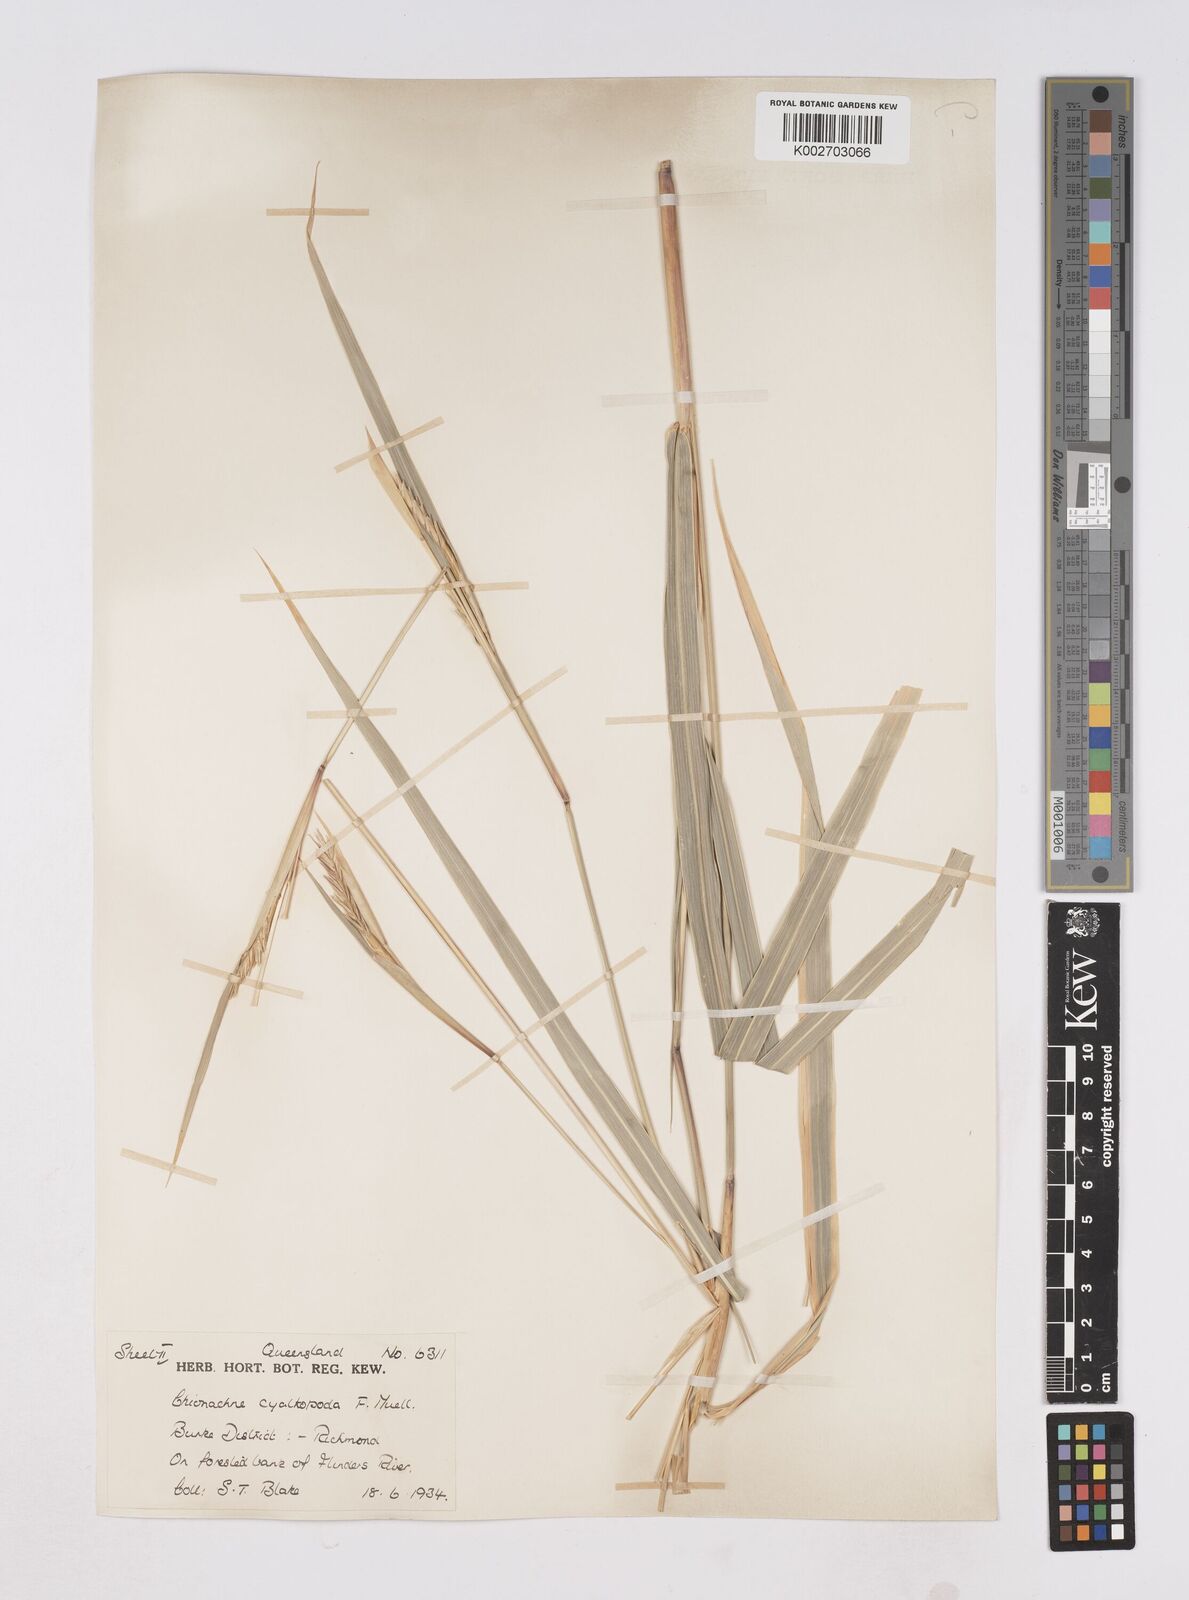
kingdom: Plantae
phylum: Tracheophyta
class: Liliopsida
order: Poales
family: Poaceae
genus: Polytoca
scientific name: Polytoca cyathopoda
